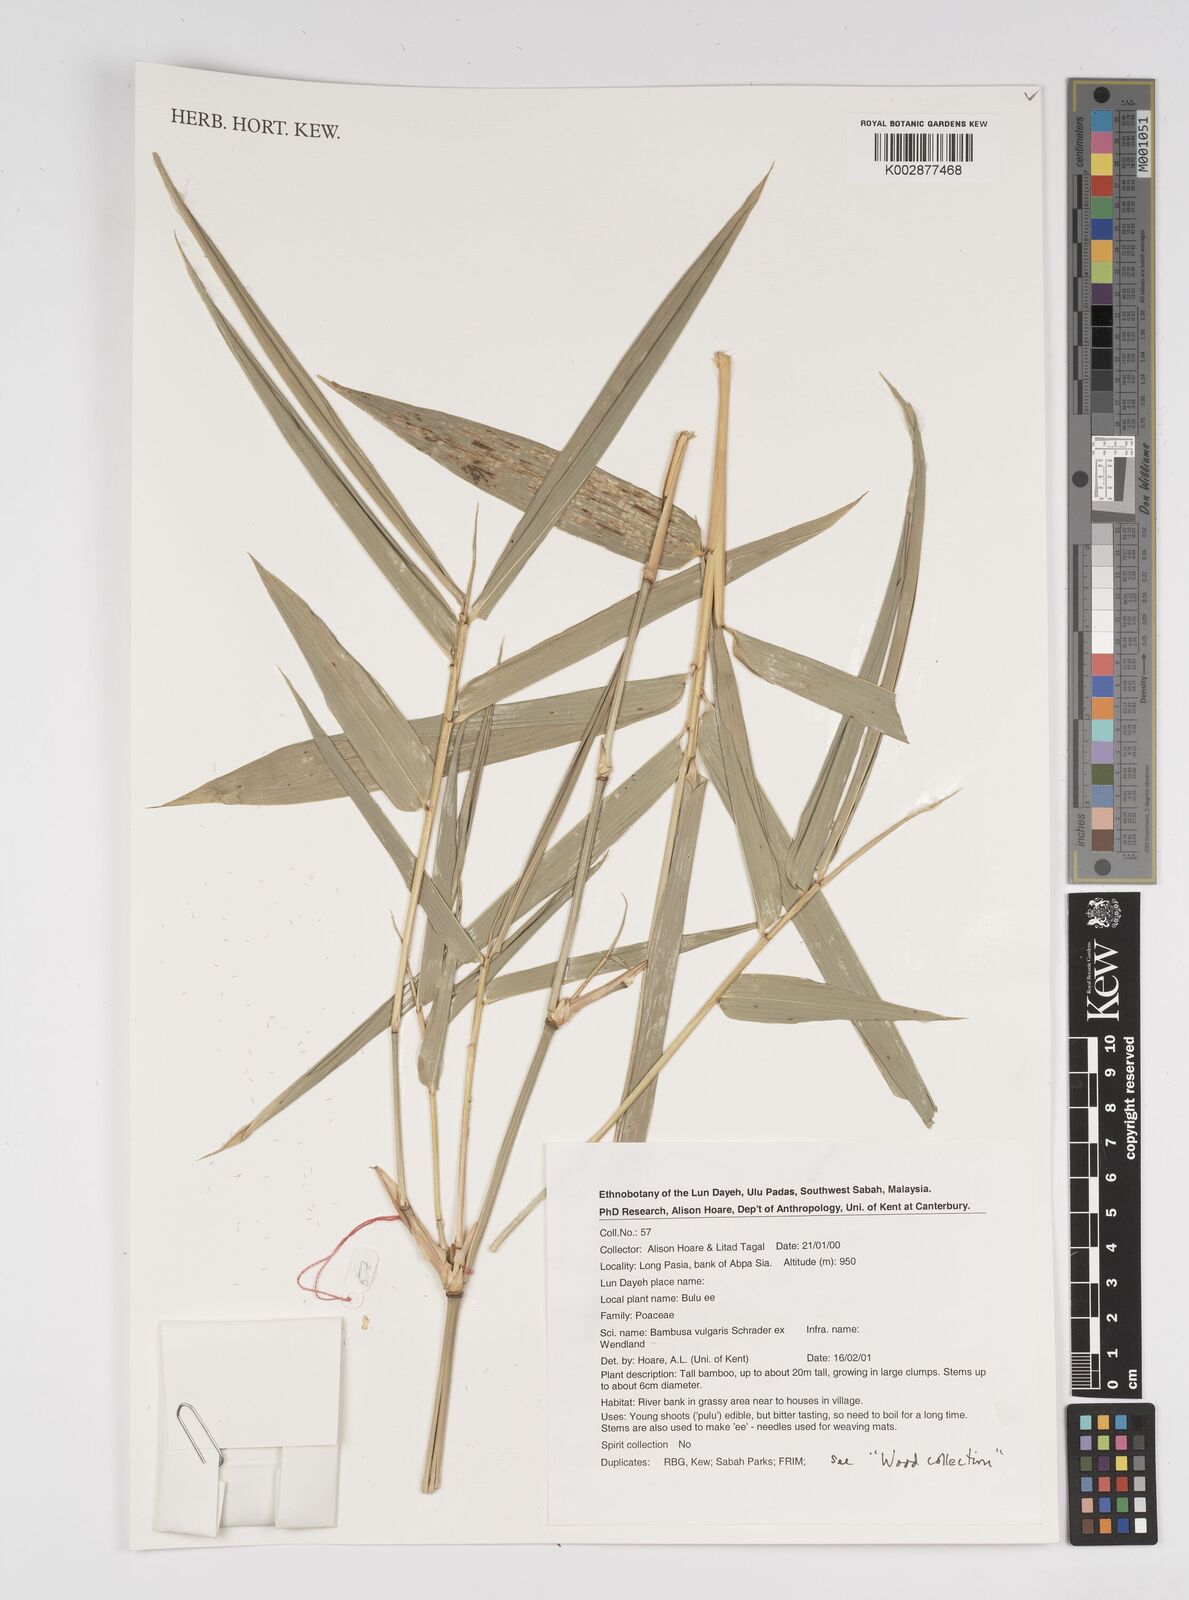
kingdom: Plantae
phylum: Tracheophyta
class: Liliopsida
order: Poales
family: Poaceae
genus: Bambusa
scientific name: Bambusa vulgaris
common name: Common bamboo
